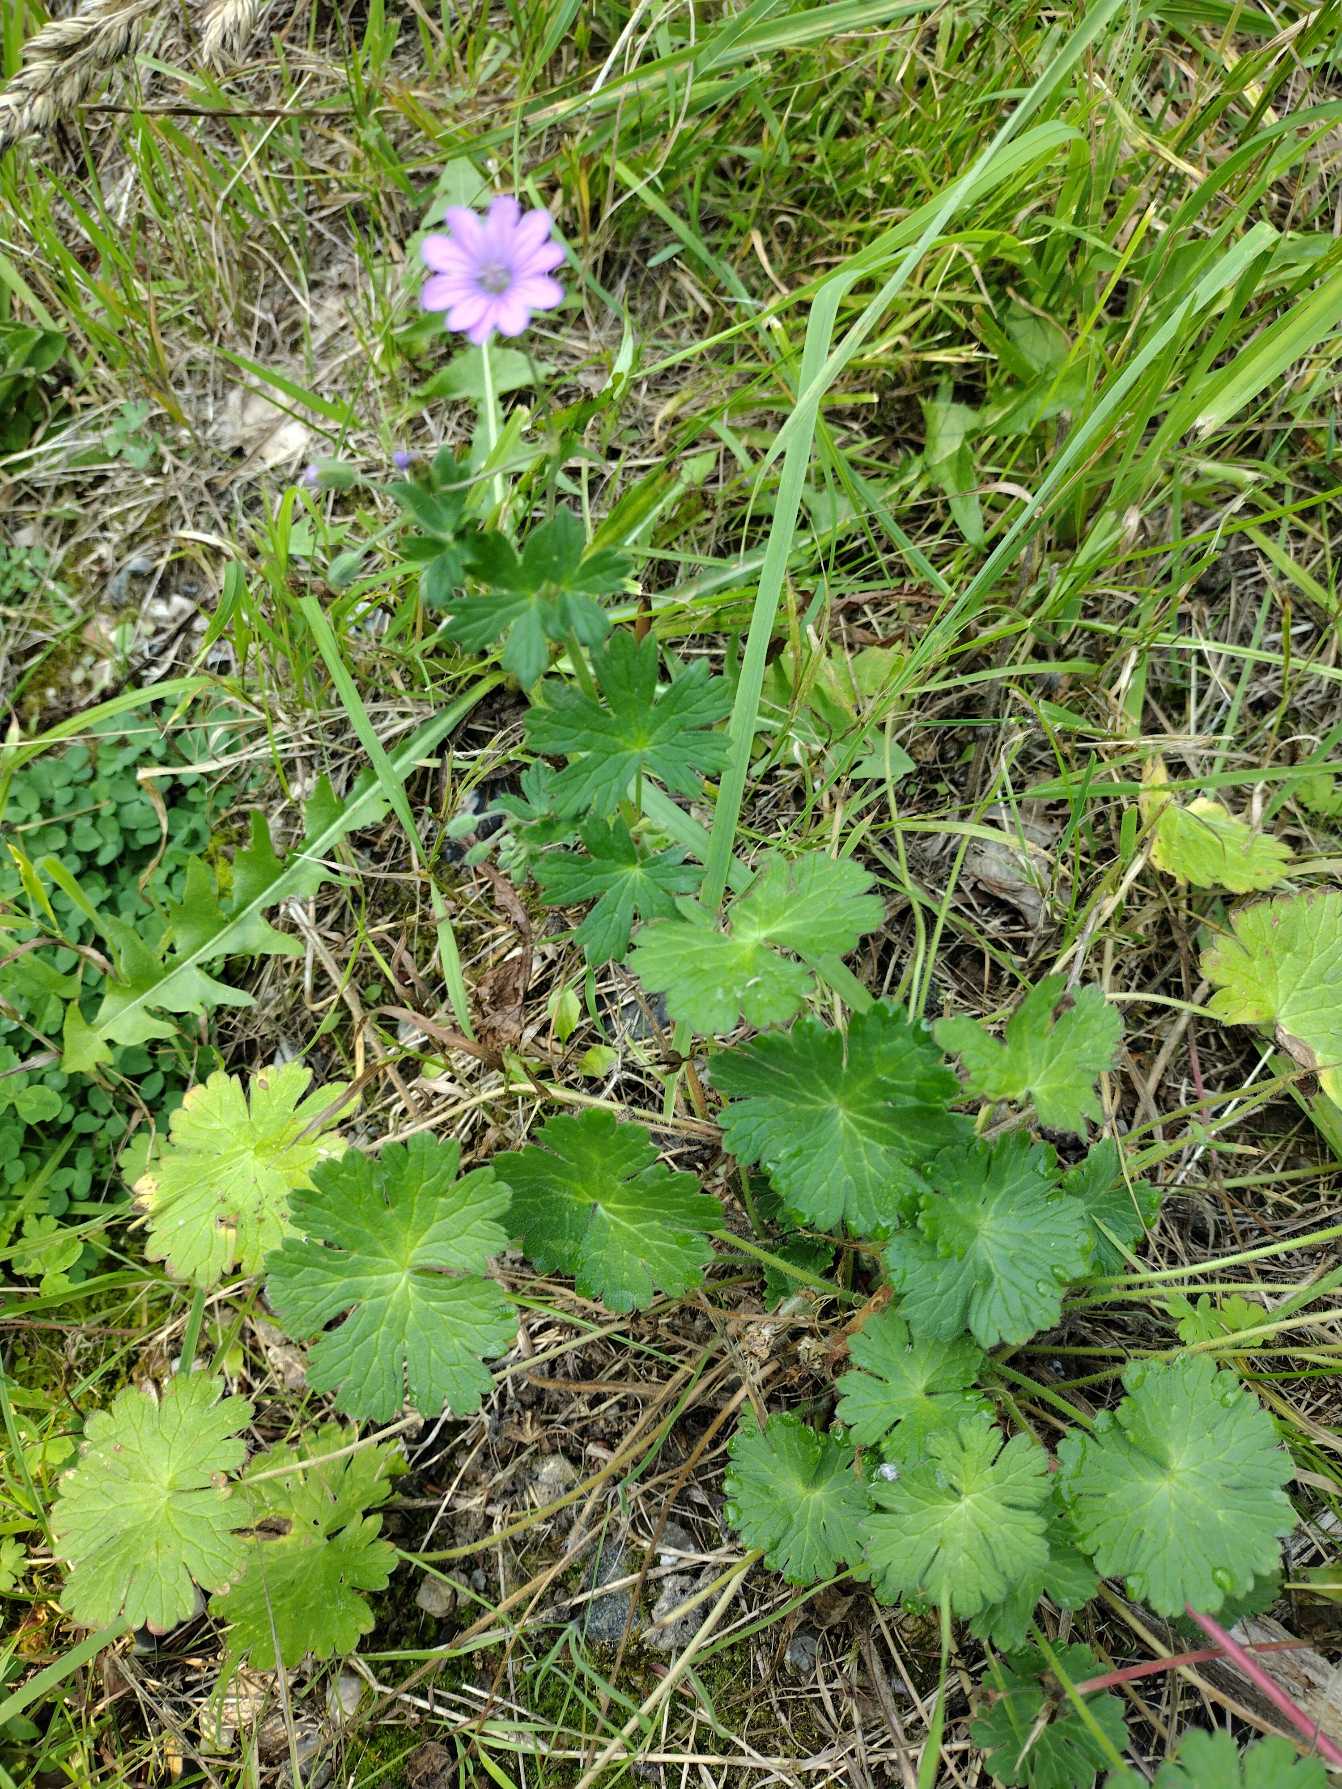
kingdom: Plantae
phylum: Tracheophyta
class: Magnoliopsida
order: Geraniales
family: Geraniaceae
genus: Geranium
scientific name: Geranium pyrenaicum
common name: Pyrenæisk storkenæb
